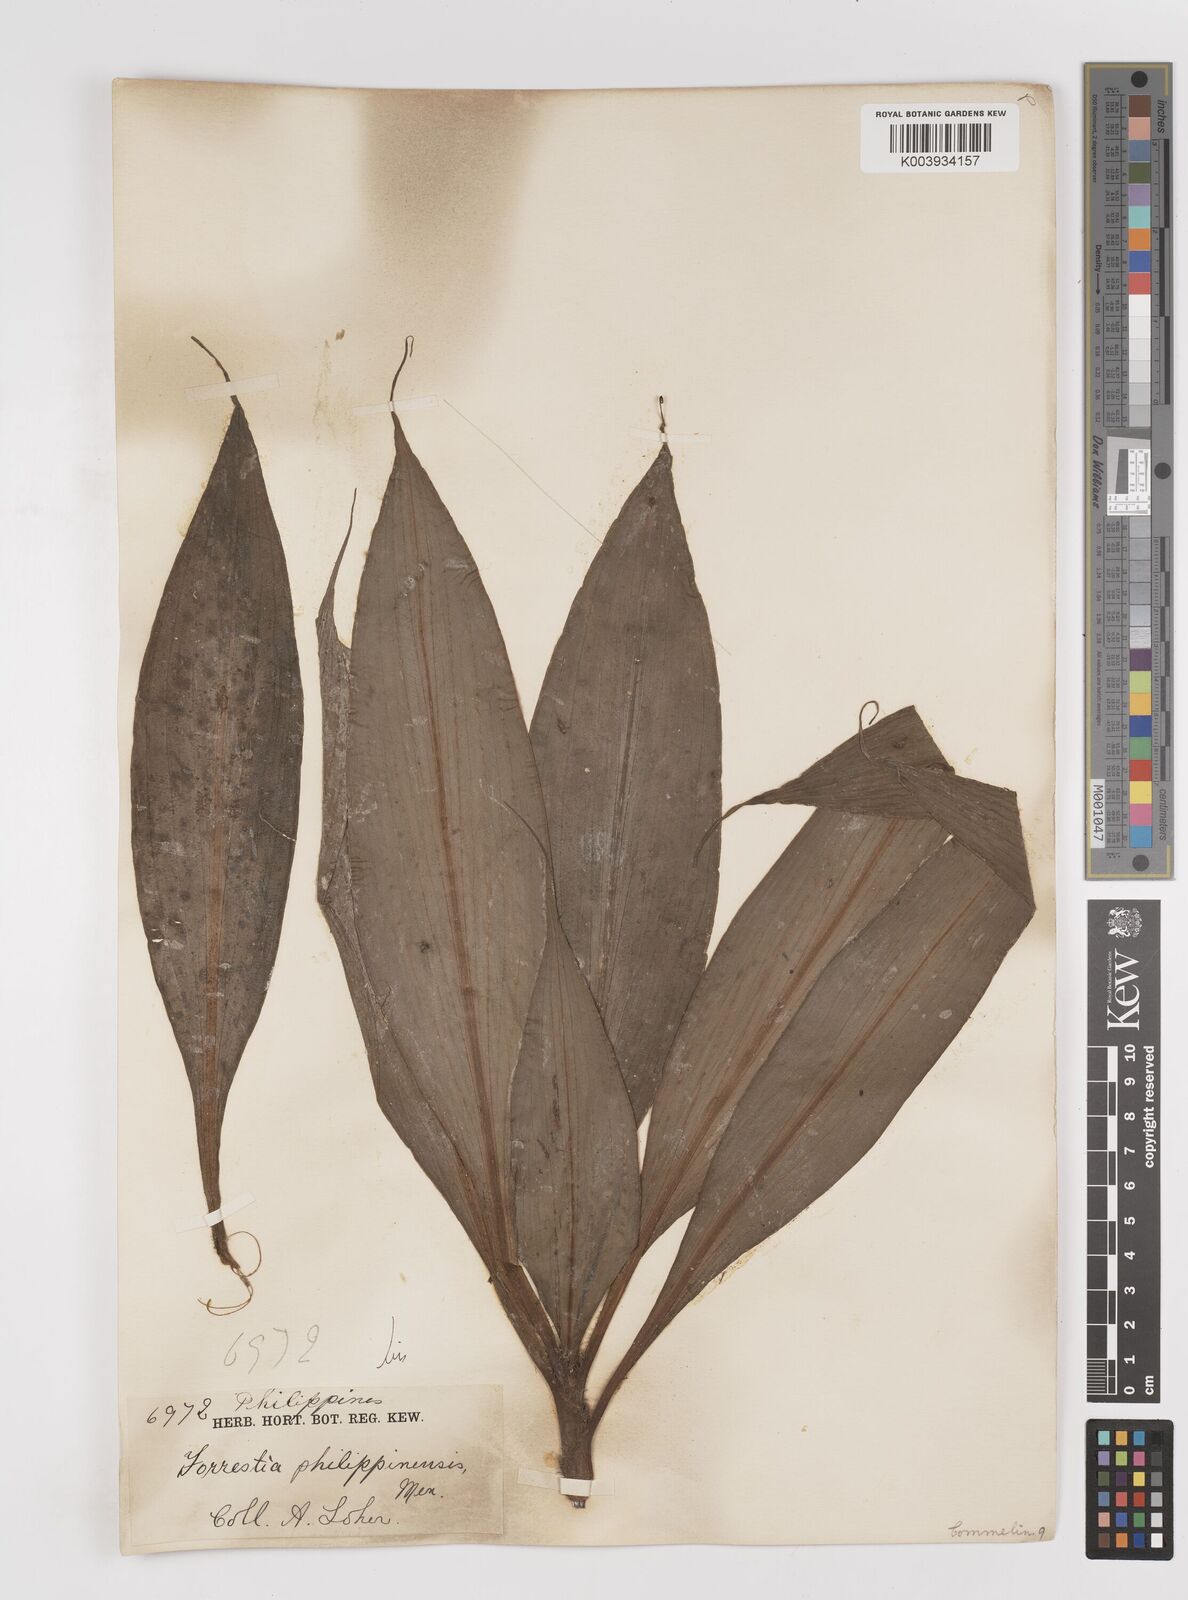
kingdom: Plantae
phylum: Tracheophyta
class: Liliopsida
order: Commelinales
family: Commelinaceae
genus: Amischotolype
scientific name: Amischotolype
